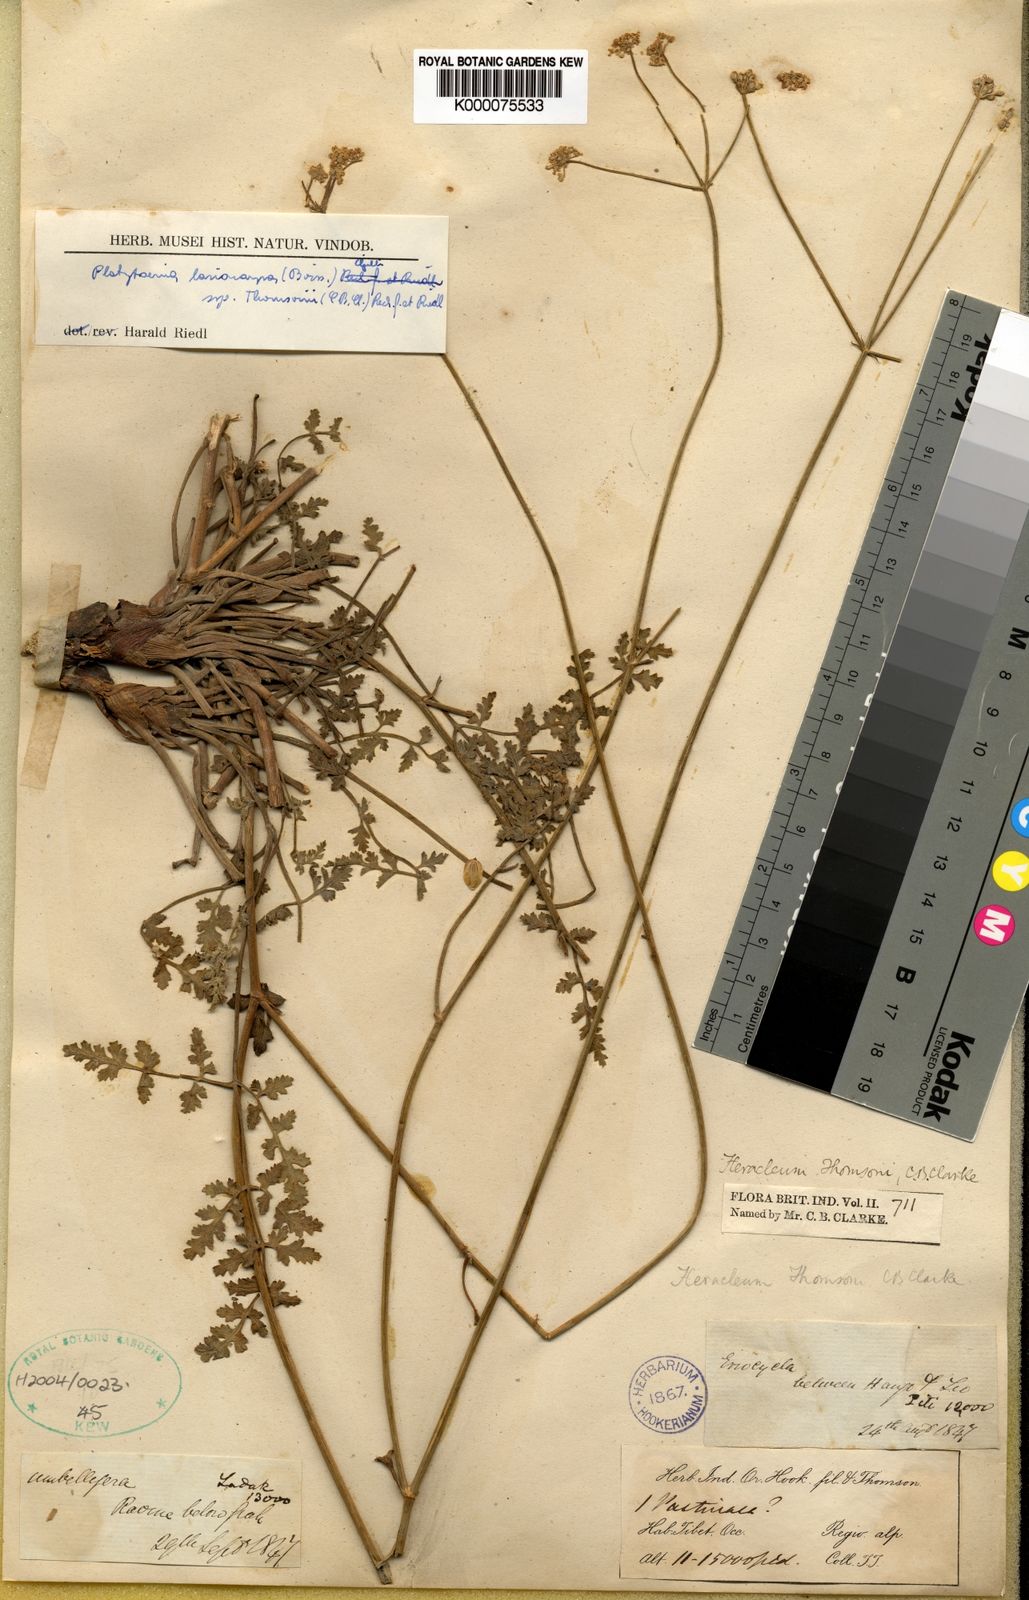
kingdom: Plantae
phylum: Tracheophyta
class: Magnoliopsida
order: Apiales
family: Apiaceae
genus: Semenovia
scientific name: Semenovia lasiocarpa
